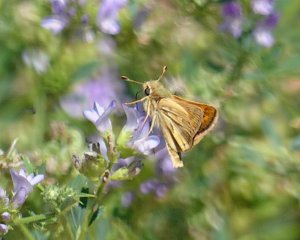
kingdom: Animalia
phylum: Arthropoda
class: Insecta
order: Lepidoptera
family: Hesperiidae
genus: Polites
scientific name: Polites sabuleti
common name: Sandhill Skipper
